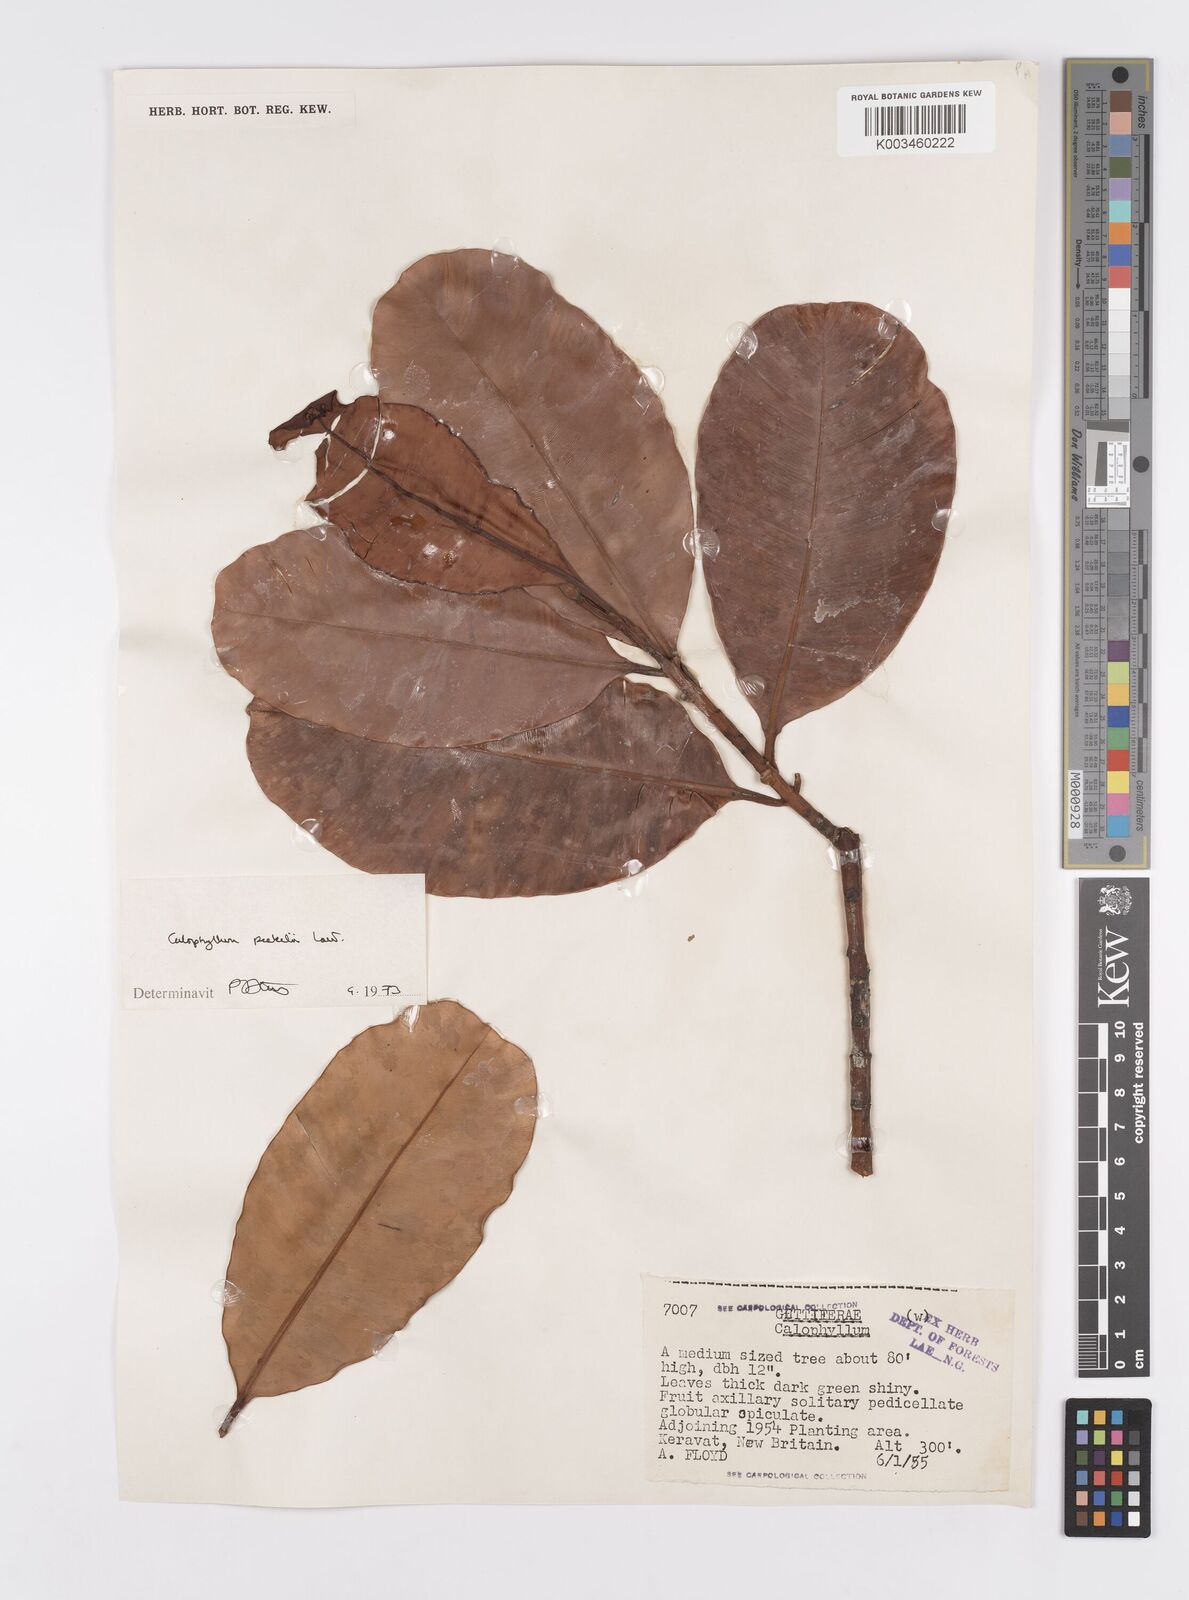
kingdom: Plantae
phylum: Tracheophyta
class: Magnoliopsida
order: Malpighiales
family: Calophyllaceae
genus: Calophyllum
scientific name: Calophyllum peekelii
